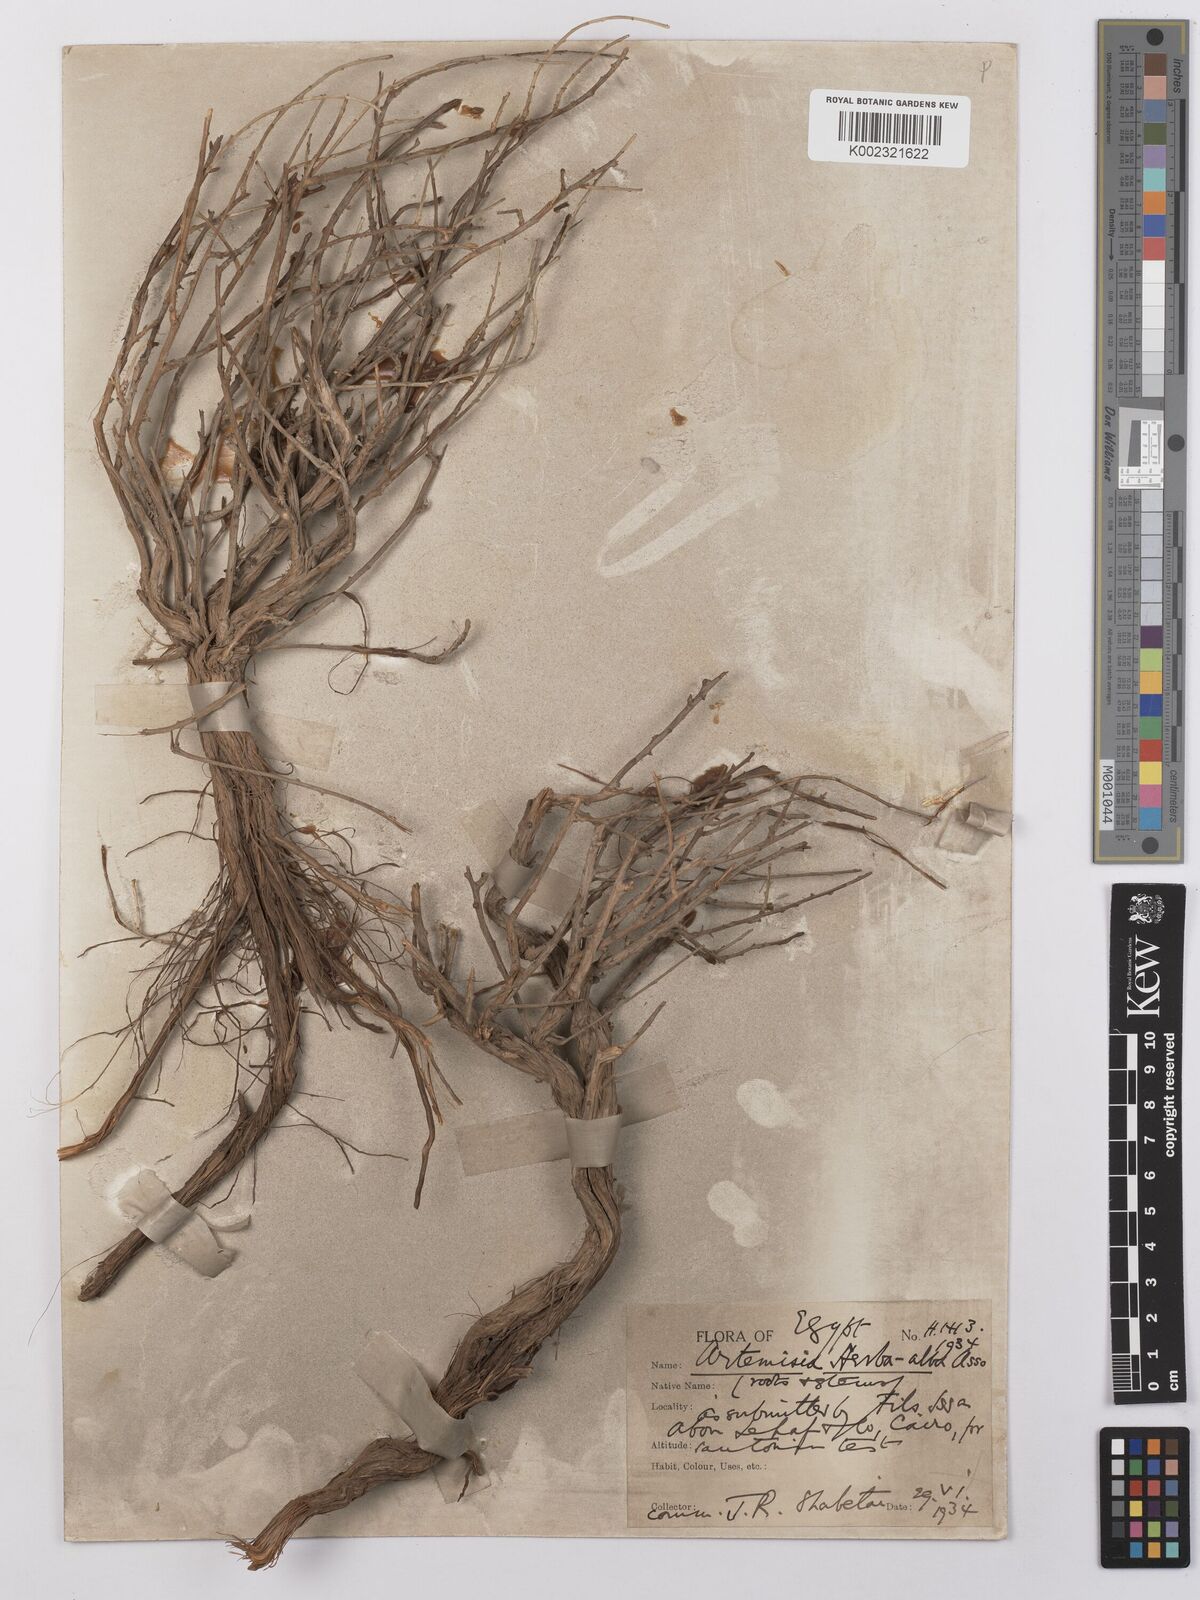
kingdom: Plantae
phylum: Tracheophyta
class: Magnoliopsida
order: Asterales
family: Asteraceae
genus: Artemisia
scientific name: Artemisia herba-alba
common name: White wormwood
